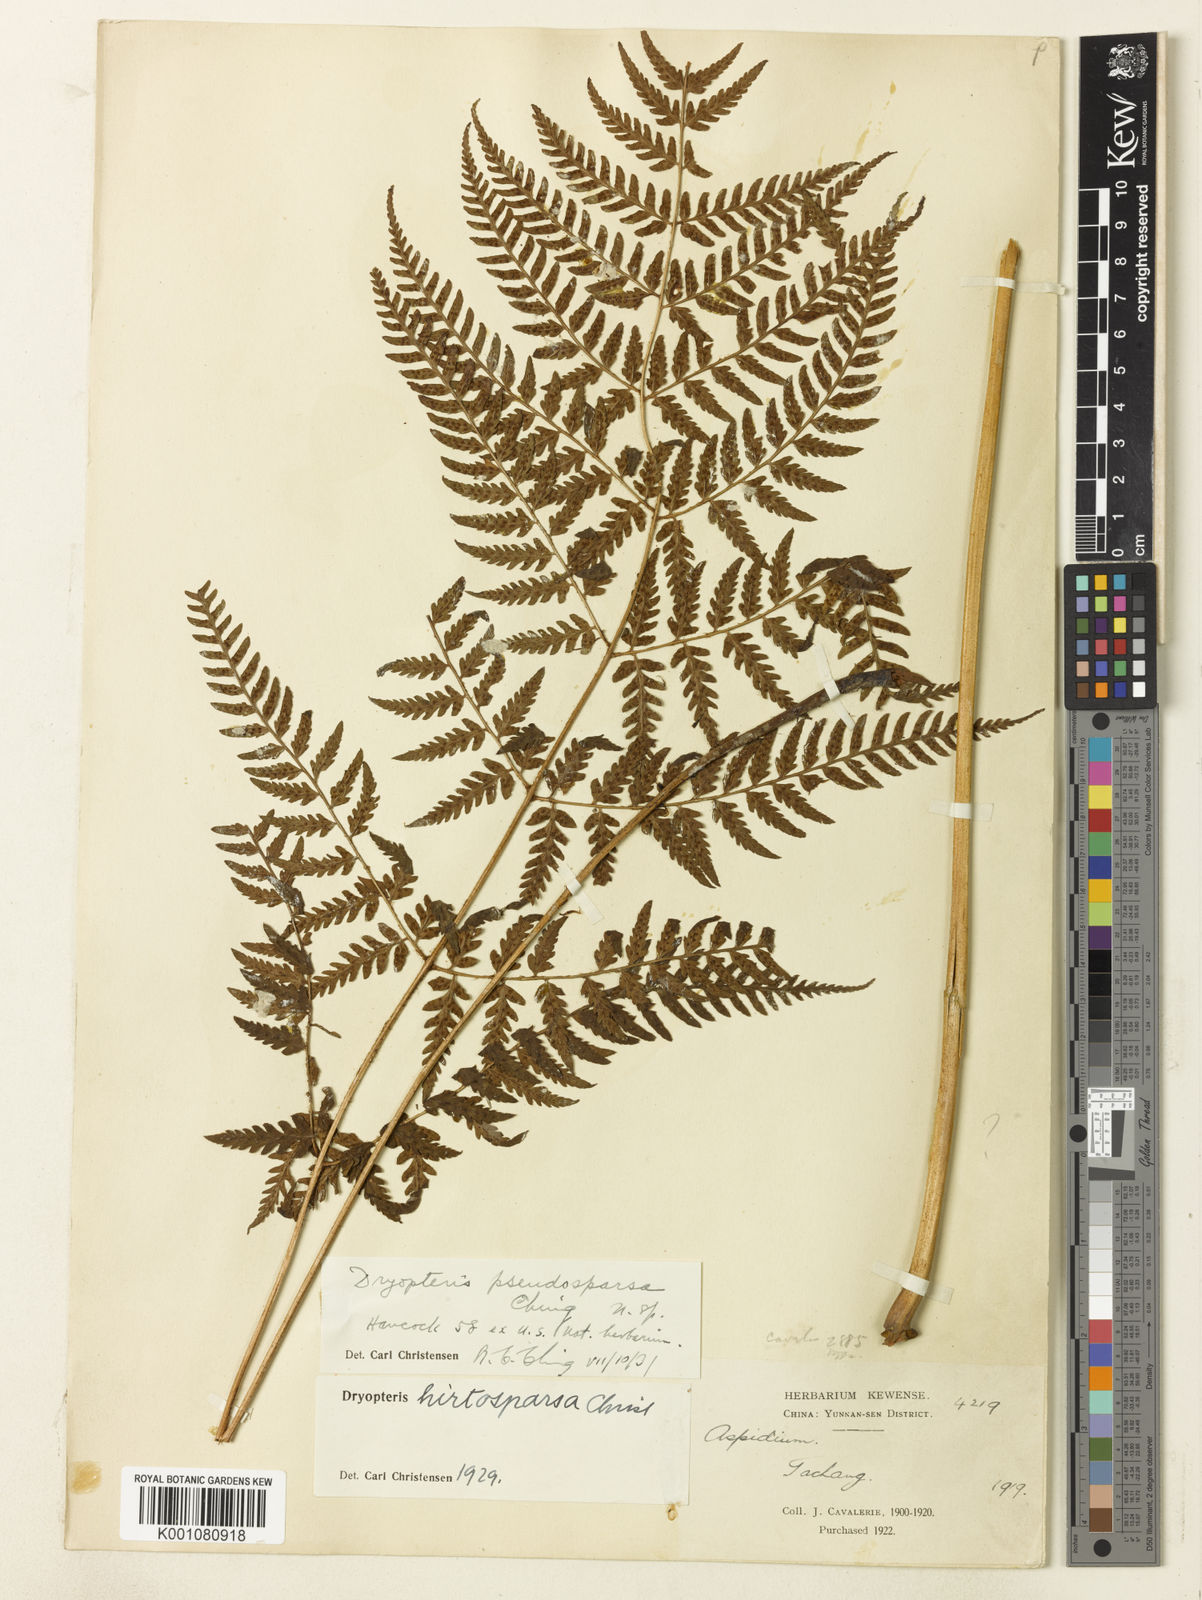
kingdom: Plantae
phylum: Tracheophyta
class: Polypodiopsida
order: Polypodiales
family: Dryopteridaceae
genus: Dryopteris
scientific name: Dryopteris pseudosparsa
